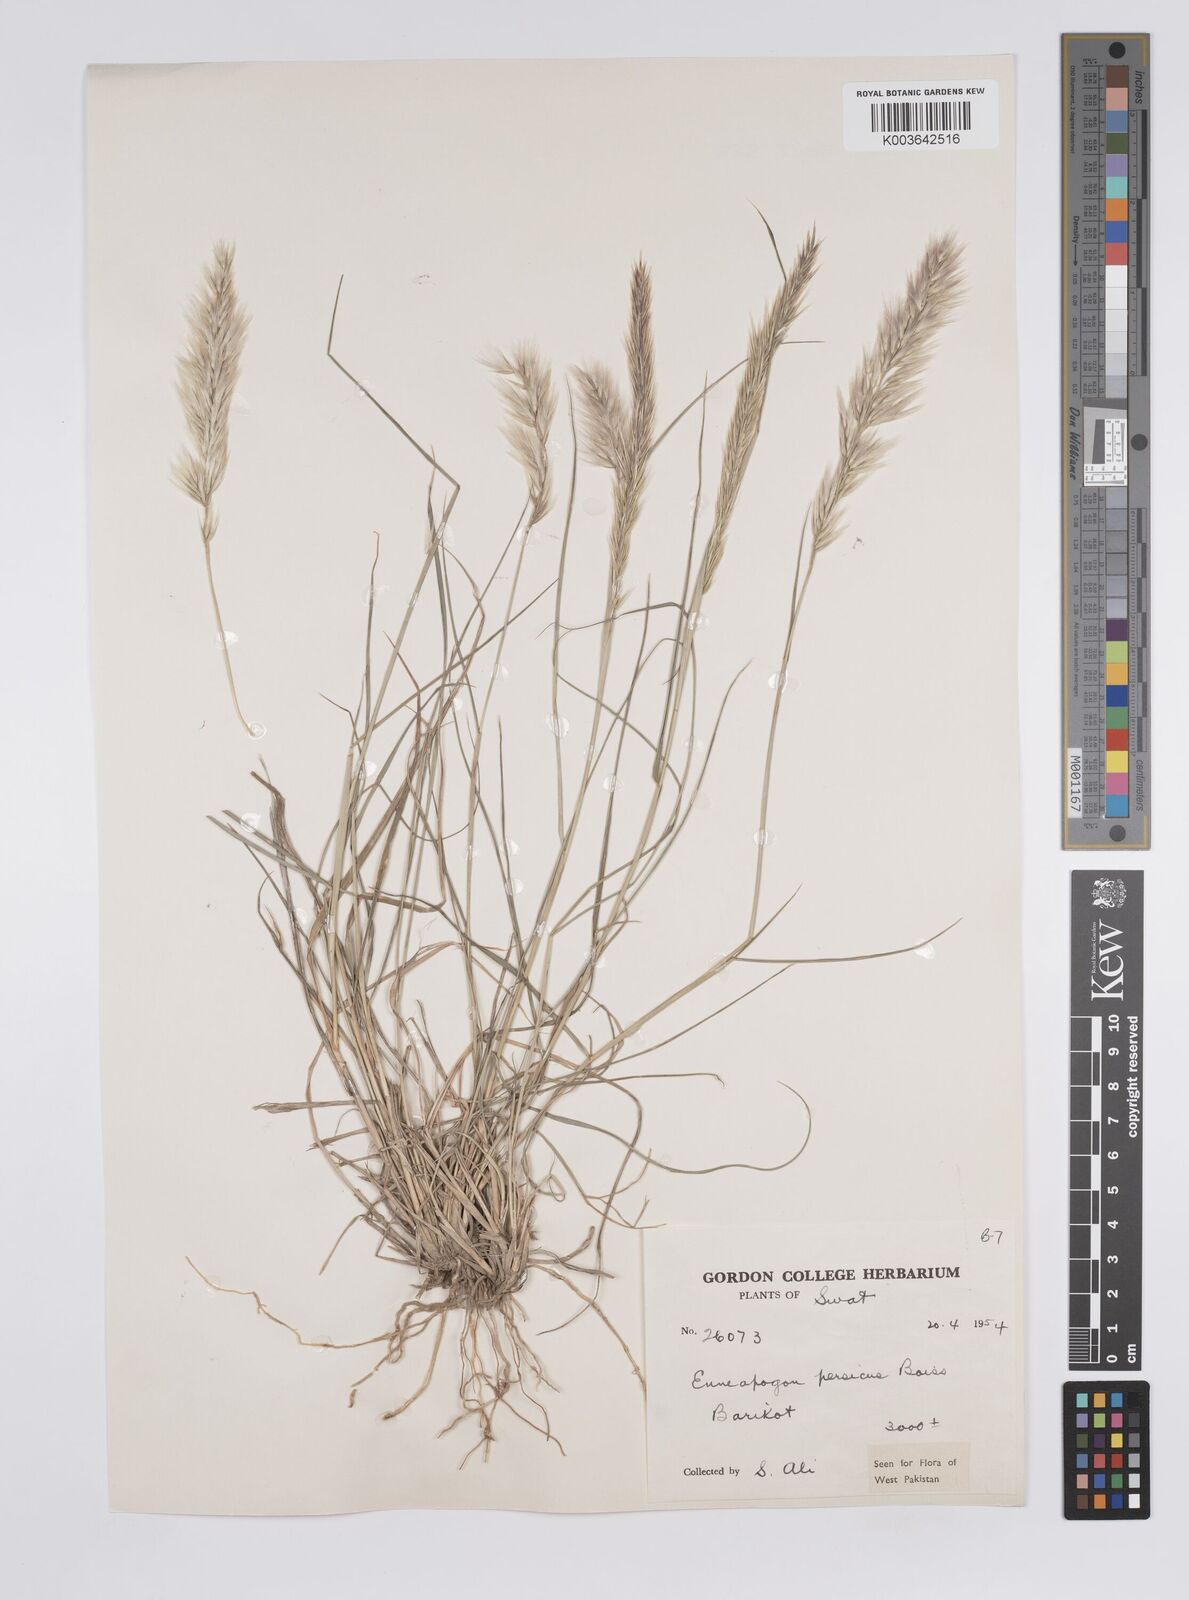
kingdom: Plantae
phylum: Tracheophyta
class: Liliopsida
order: Poales
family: Poaceae
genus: Enneapogon
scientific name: Enneapogon persicus
